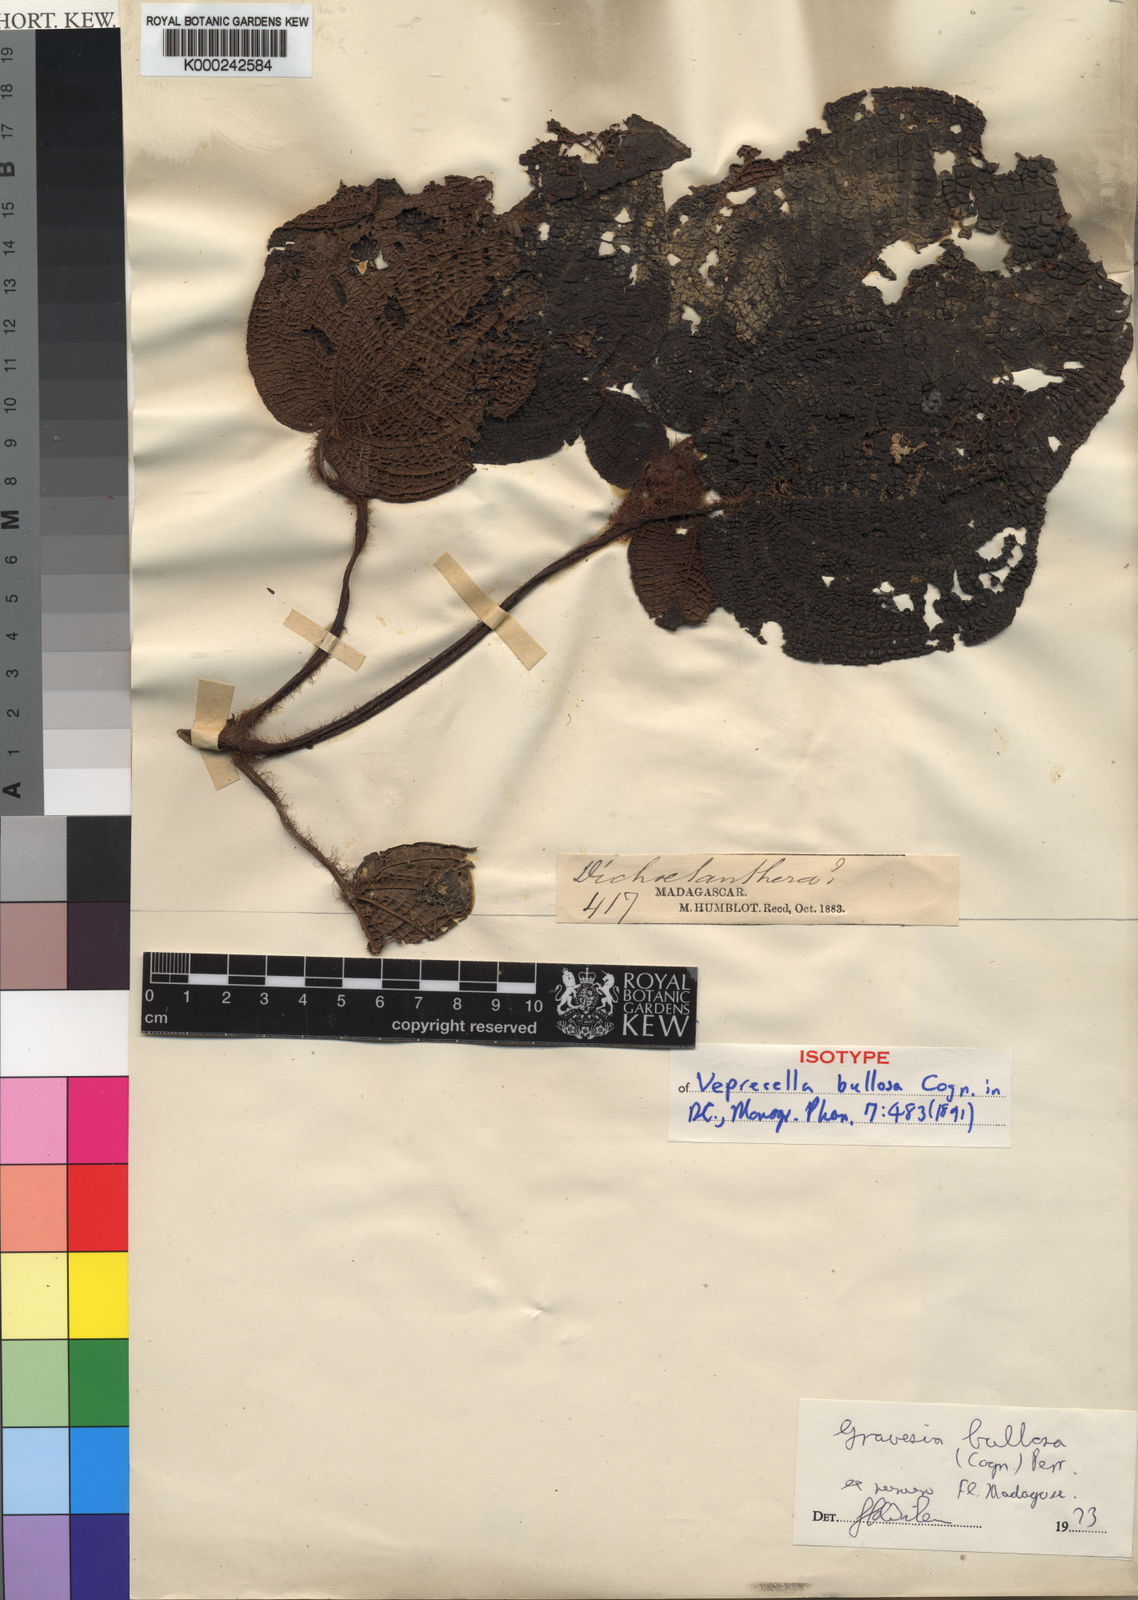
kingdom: Plantae
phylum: Tracheophyta
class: Magnoliopsida
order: Myrtales
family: Melastomataceae
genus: Gravesia
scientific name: Gravesia bullosa
